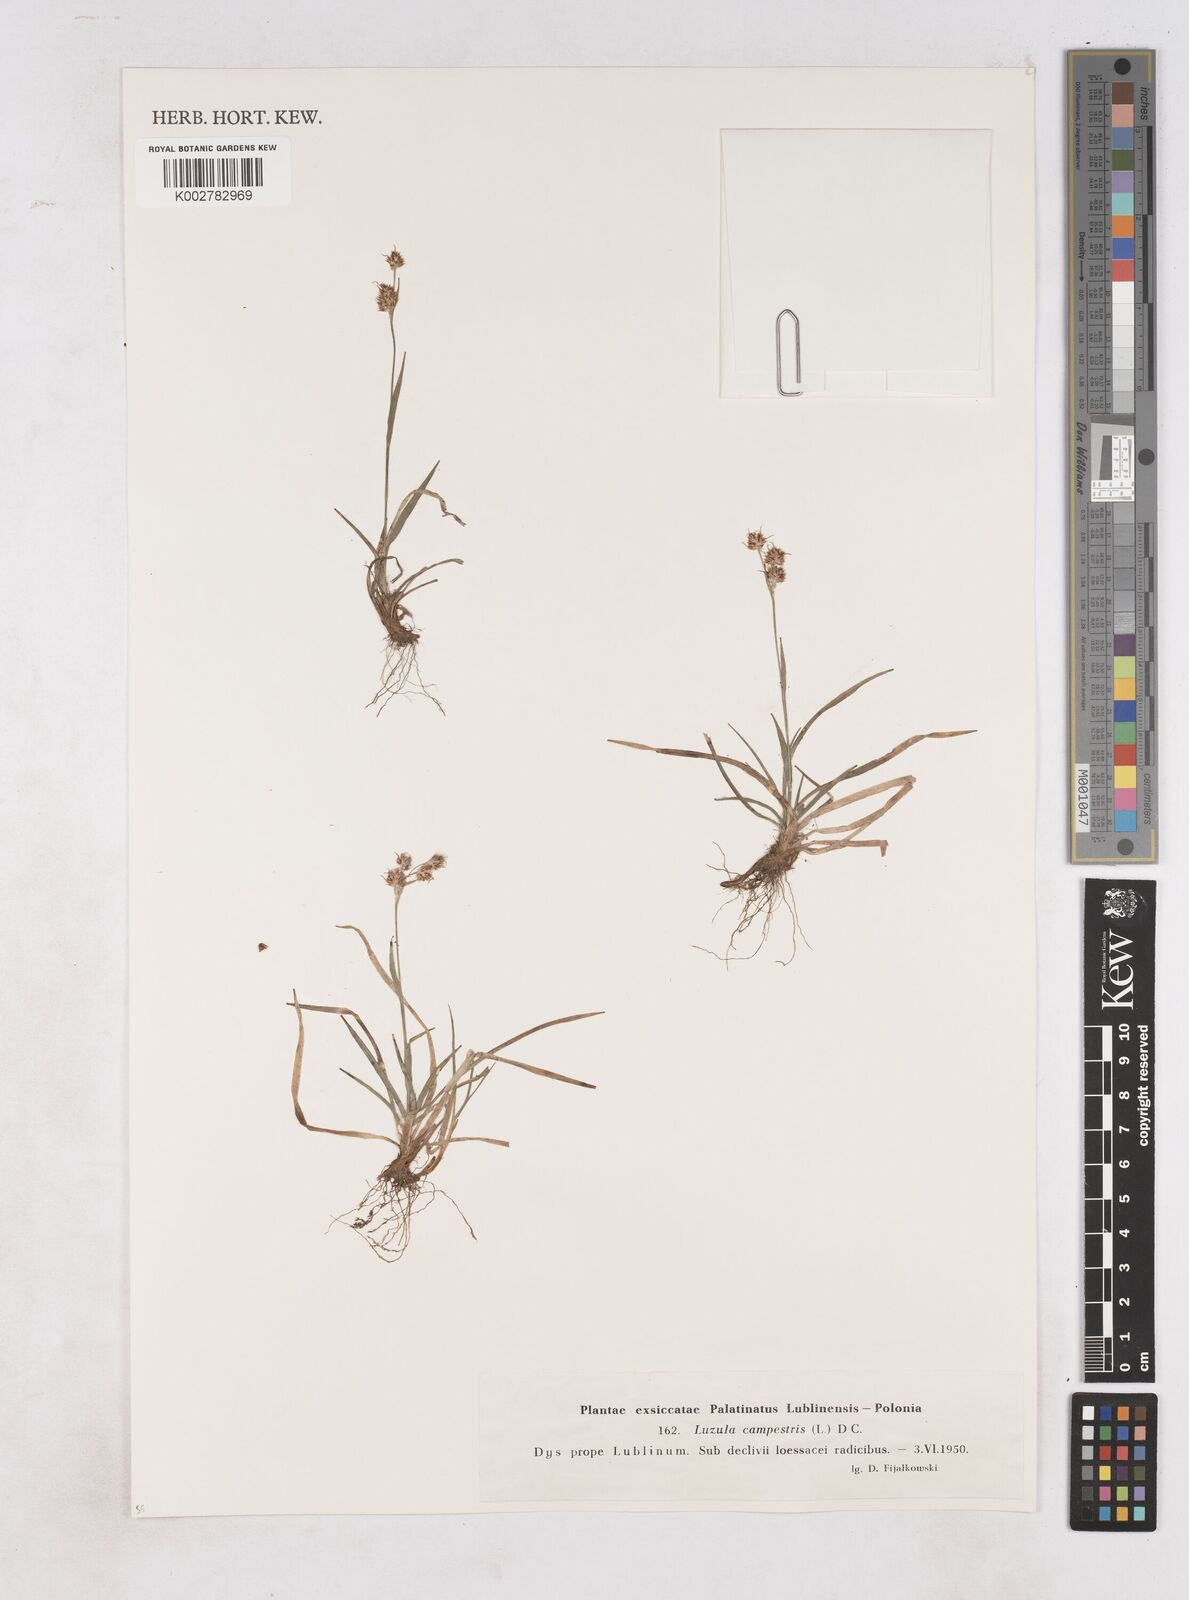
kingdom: Plantae
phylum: Tracheophyta
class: Liliopsida
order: Poales
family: Juncaceae
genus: Luzula
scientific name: Luzula campestris
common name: Field wood-rush
